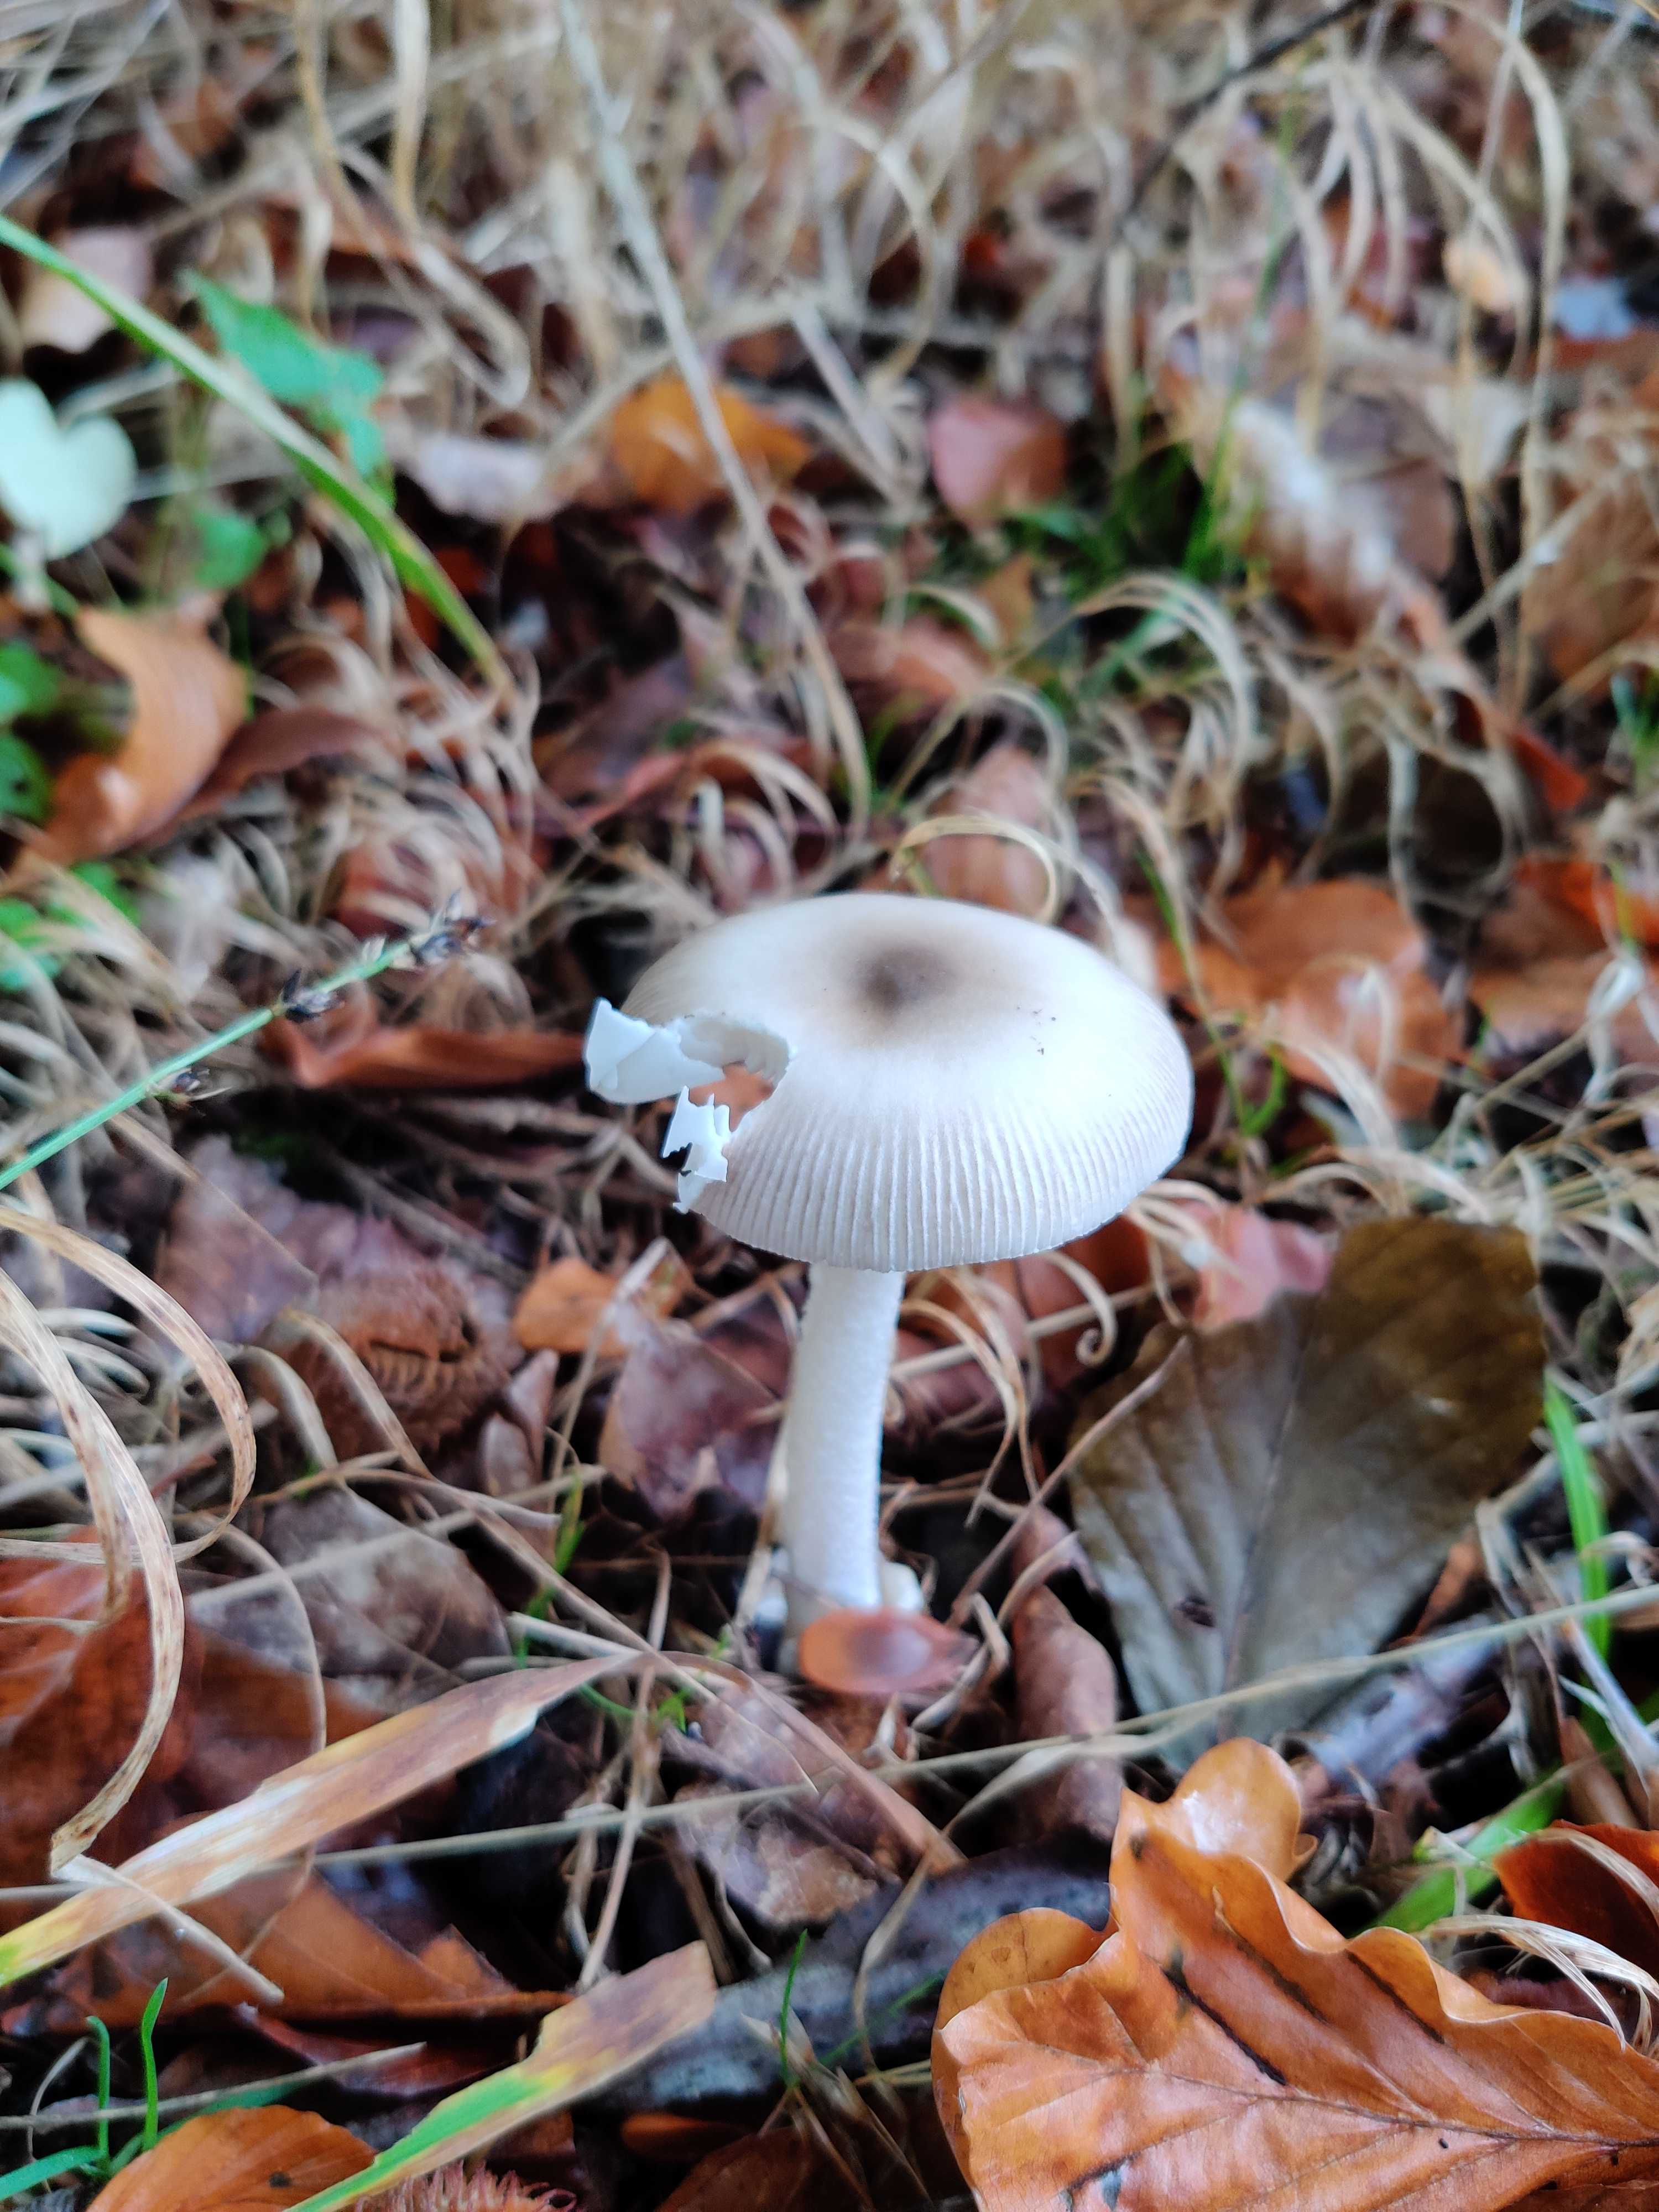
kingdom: Fungi
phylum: Basidiomycota
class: Agaricomycetes
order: Agaricales
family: Amanitaceae
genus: Amanita
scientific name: Amanita vaginata
